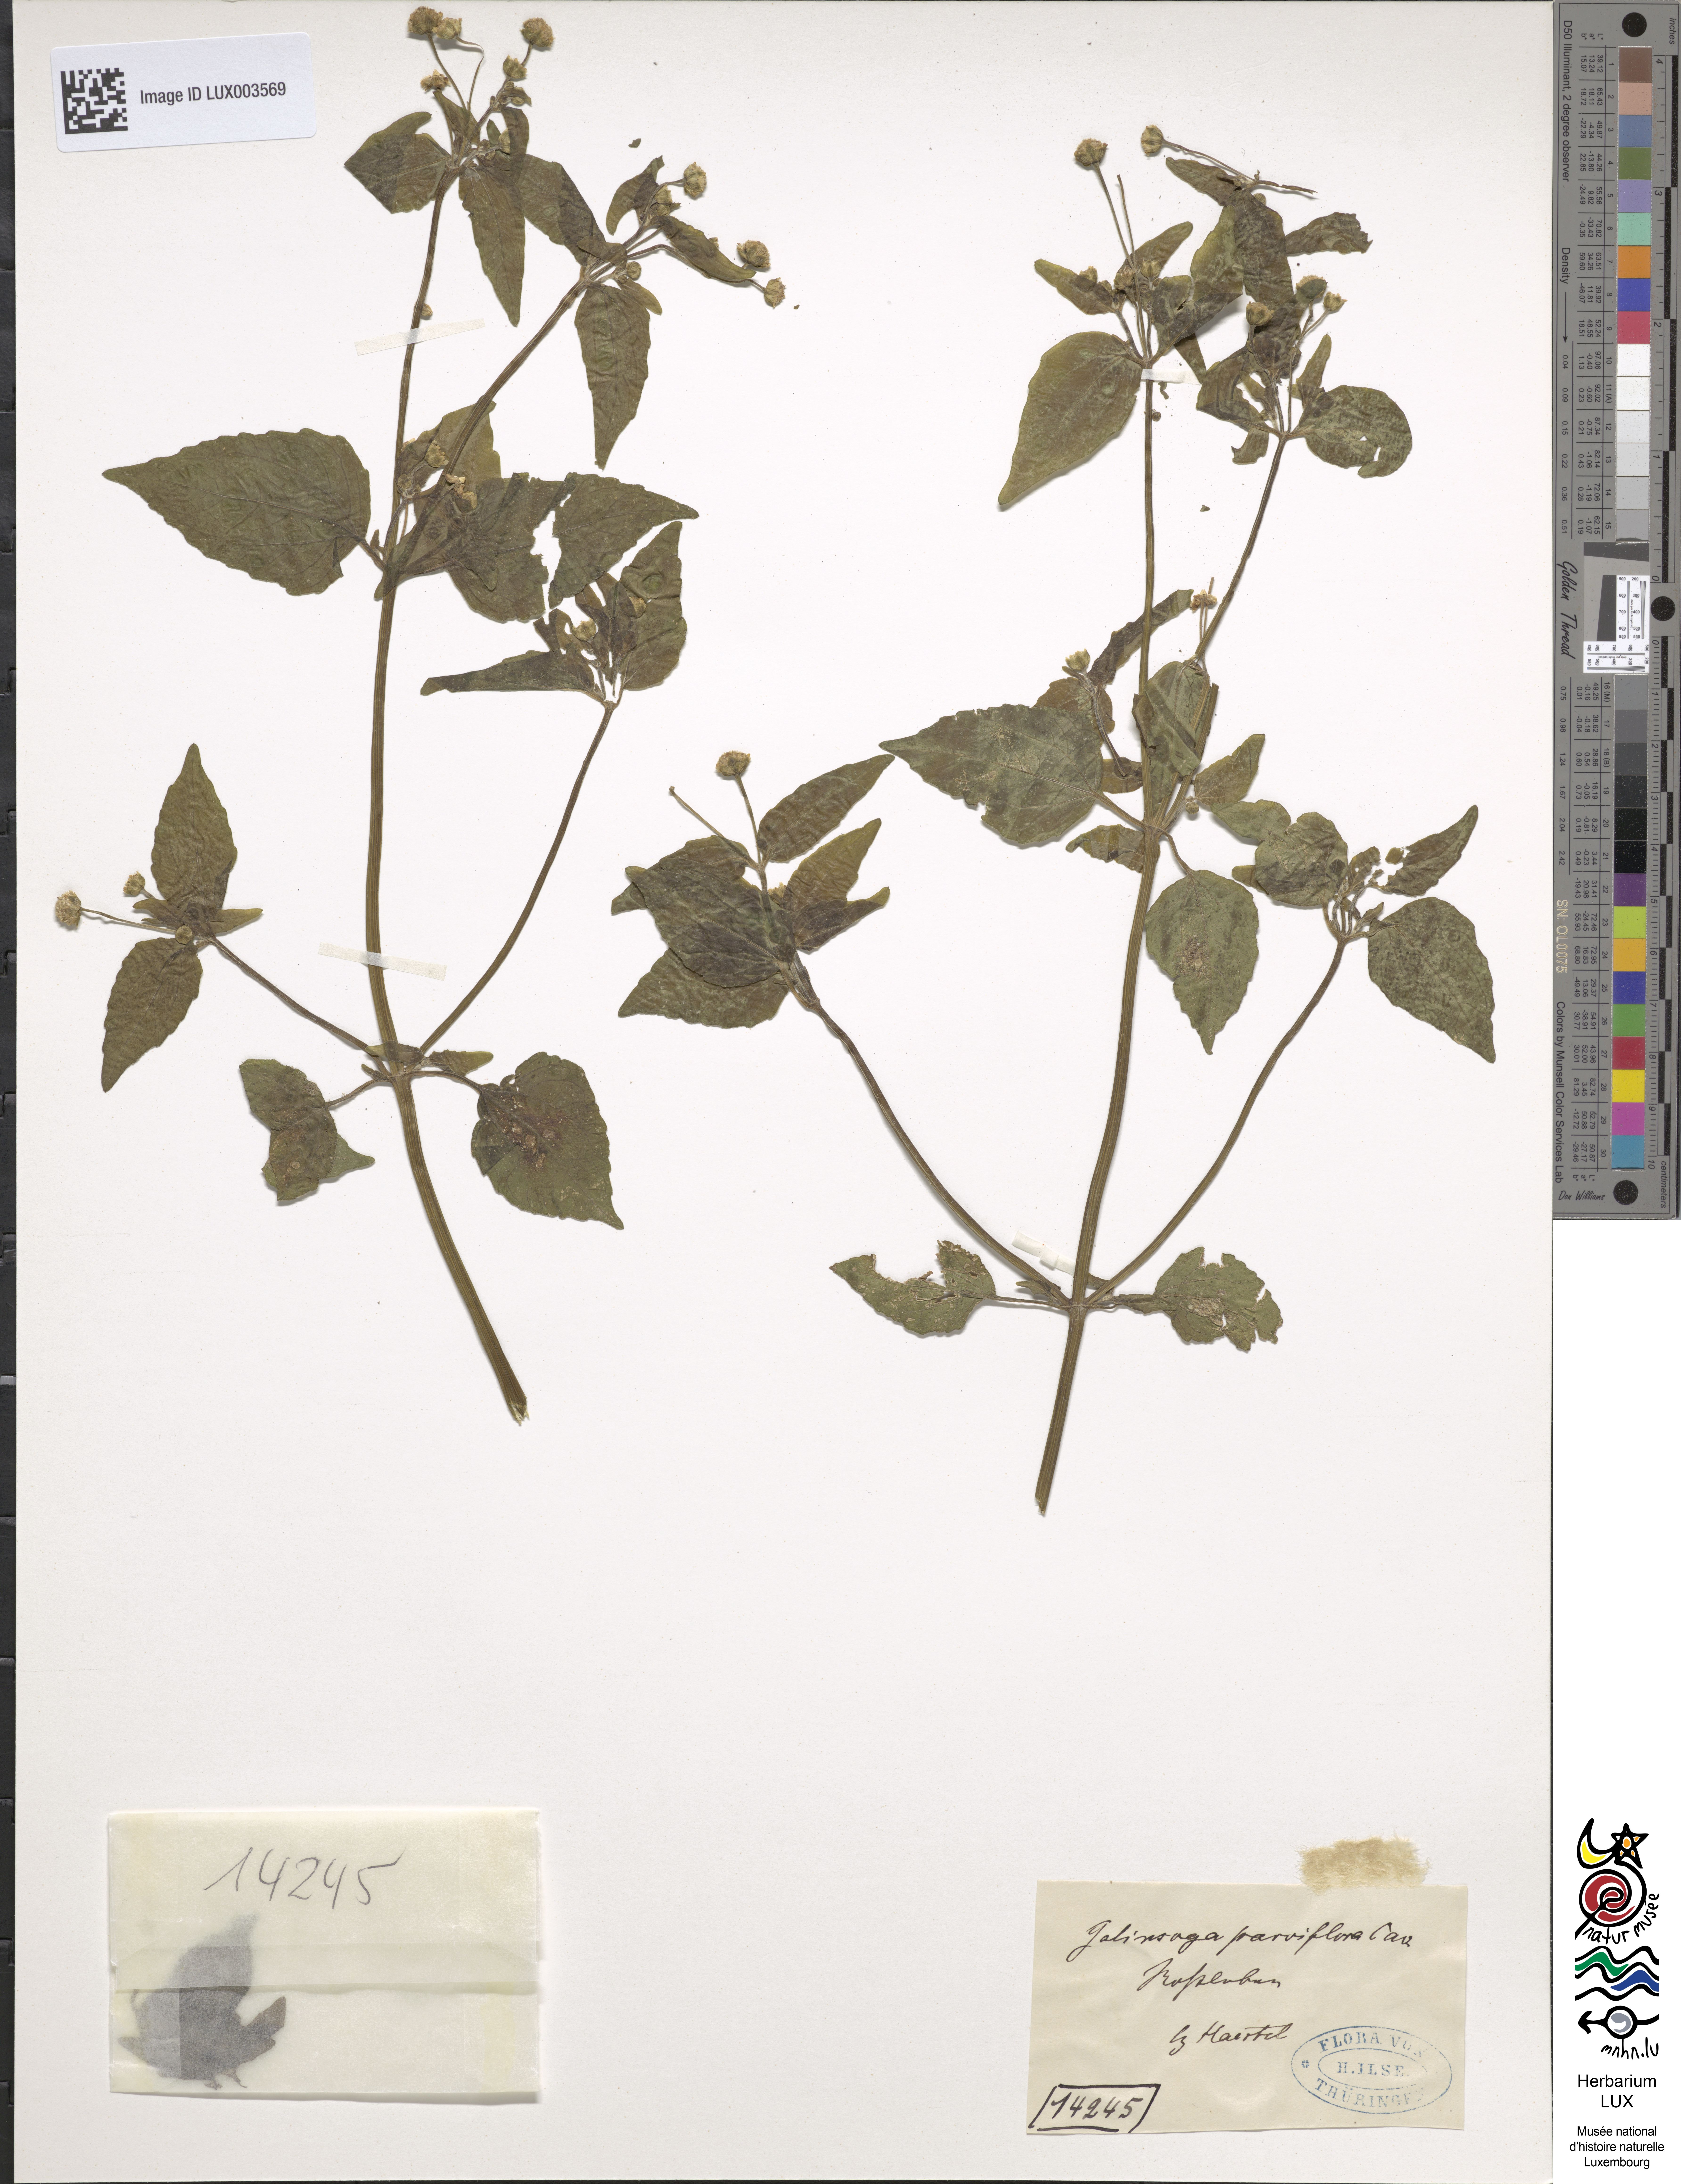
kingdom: Plantae
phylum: Tracheophyta
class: Magnoliopsida
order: Asterales
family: Asteraceae
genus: Galinsoga
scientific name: Galinsoga parviflora
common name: Gallant soldier
